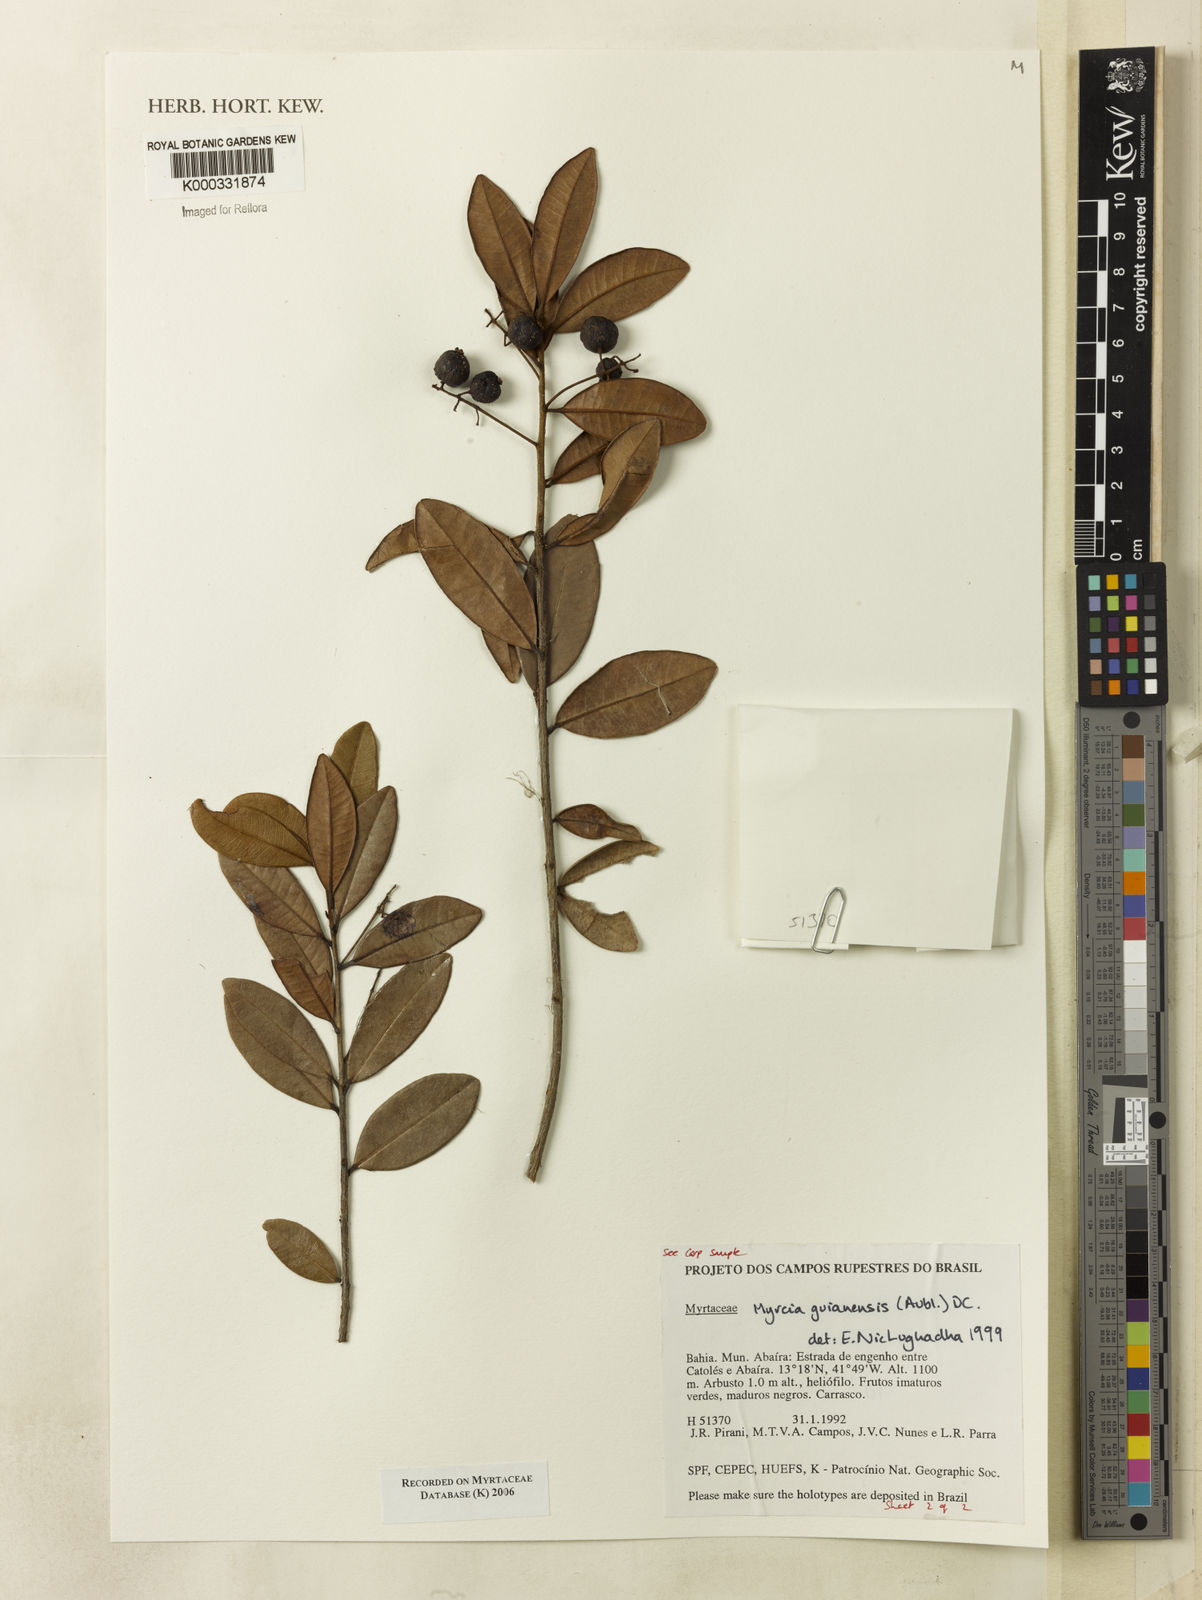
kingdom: Plantae
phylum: Tracheophyta
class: Magnoliopsida
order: Myrtales
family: Myrtaceae
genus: Myrcia
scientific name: Myrcia guianensis
